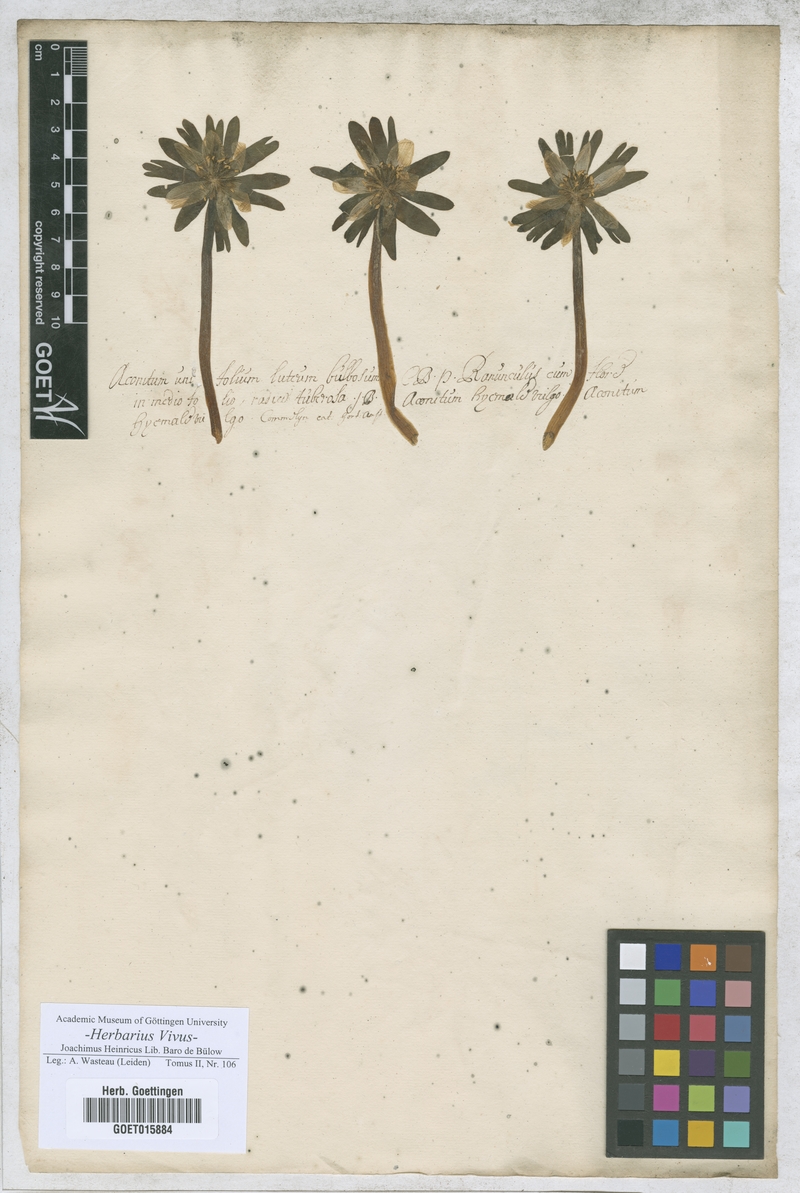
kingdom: Plantae
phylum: Tracheophyta
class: Magnoliopsida
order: Ranunculales
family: Ranunculaceae
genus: Aconitum
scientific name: Aconitum
